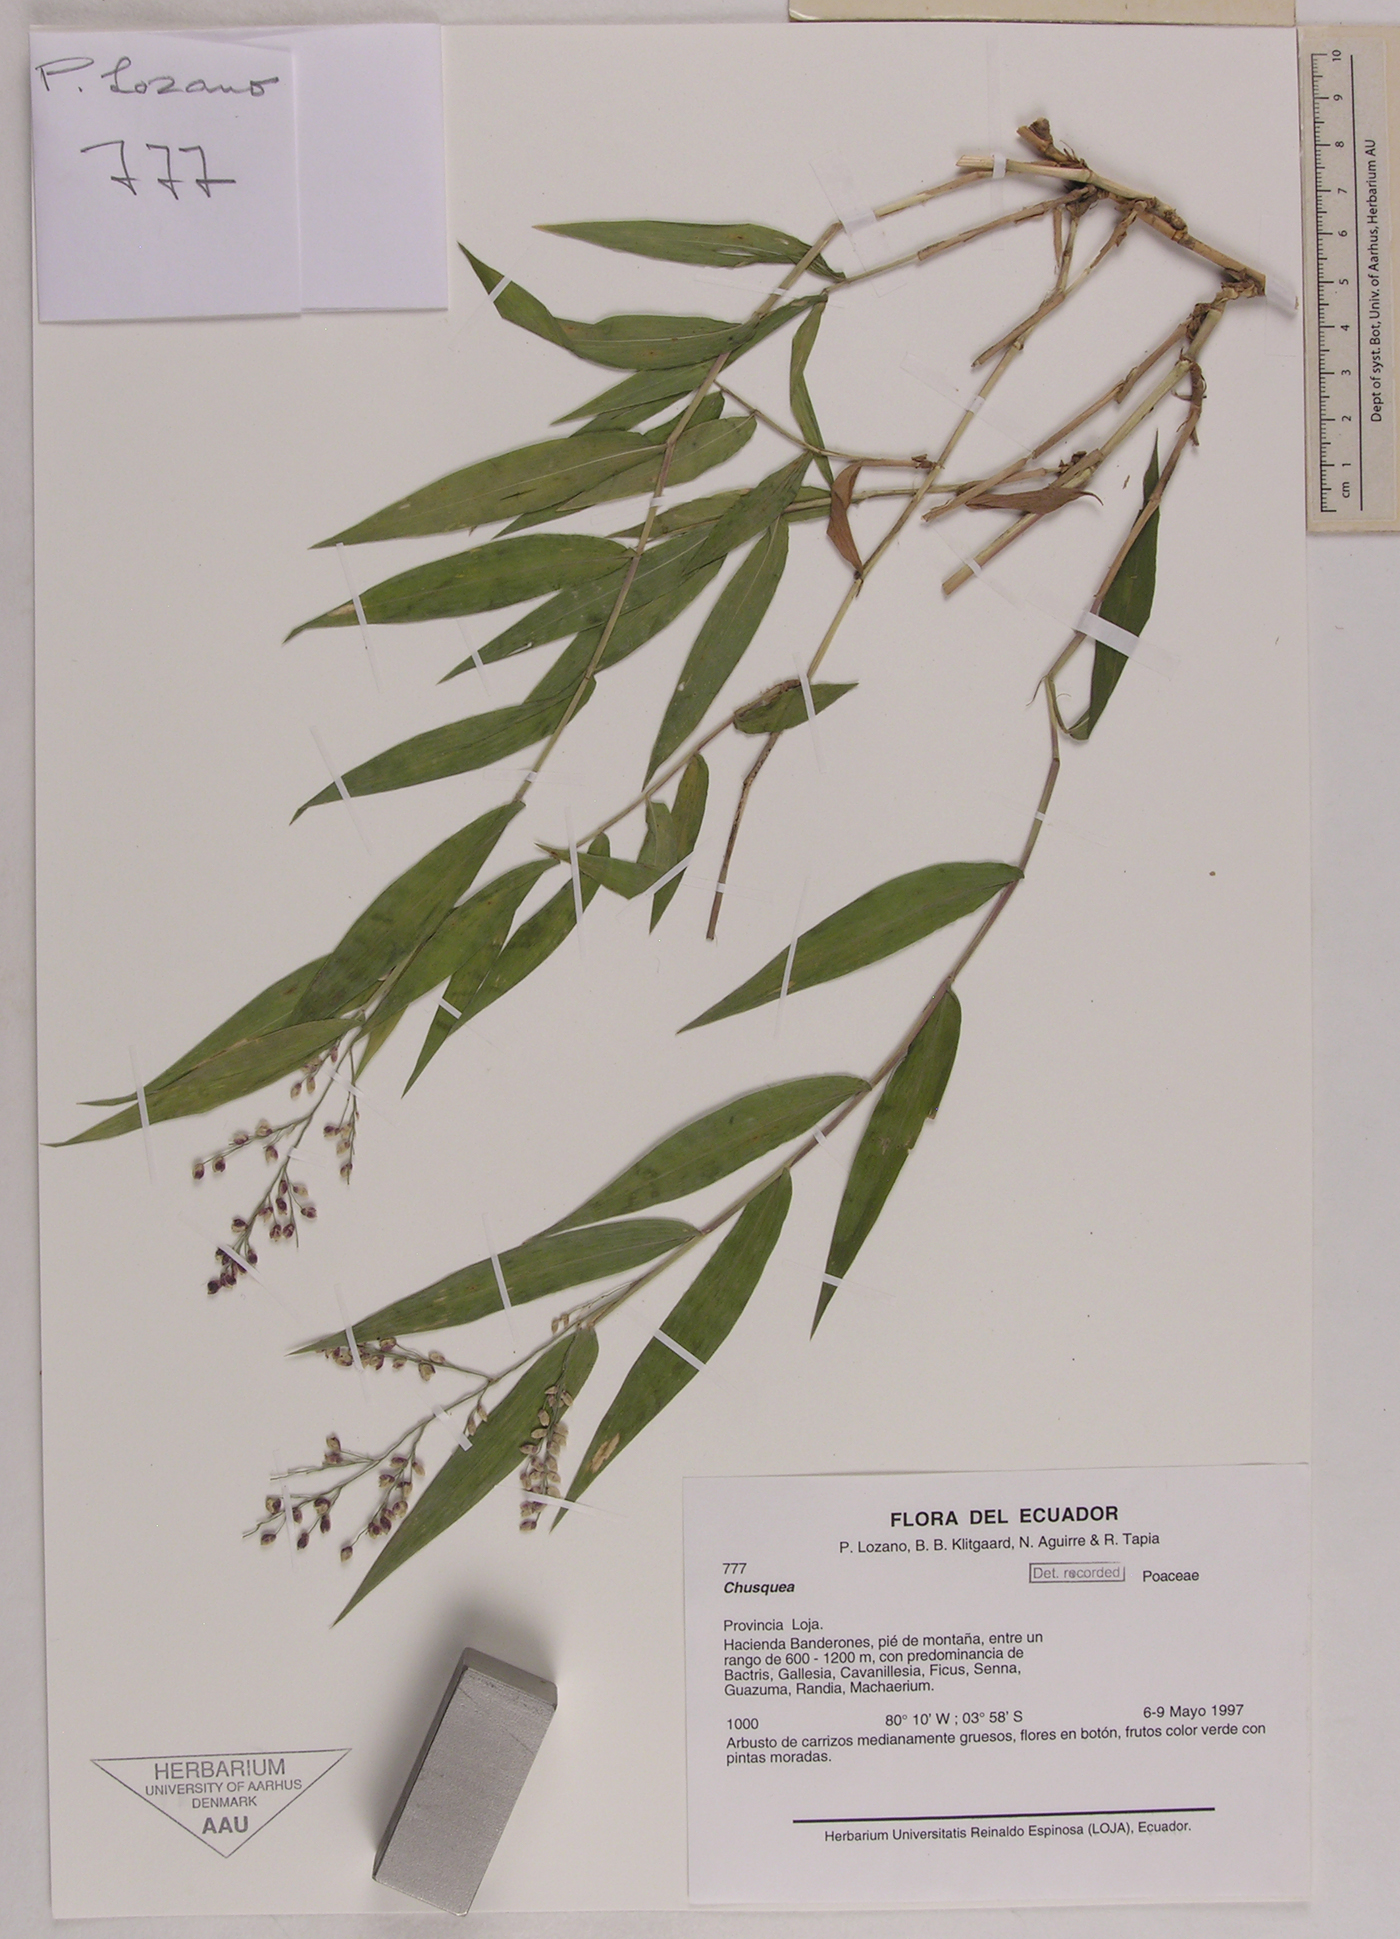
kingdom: Plantae
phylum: Tracheophyta
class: Liliopsida
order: Poales
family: Poaceae
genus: Chusquea
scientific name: Chusquea
